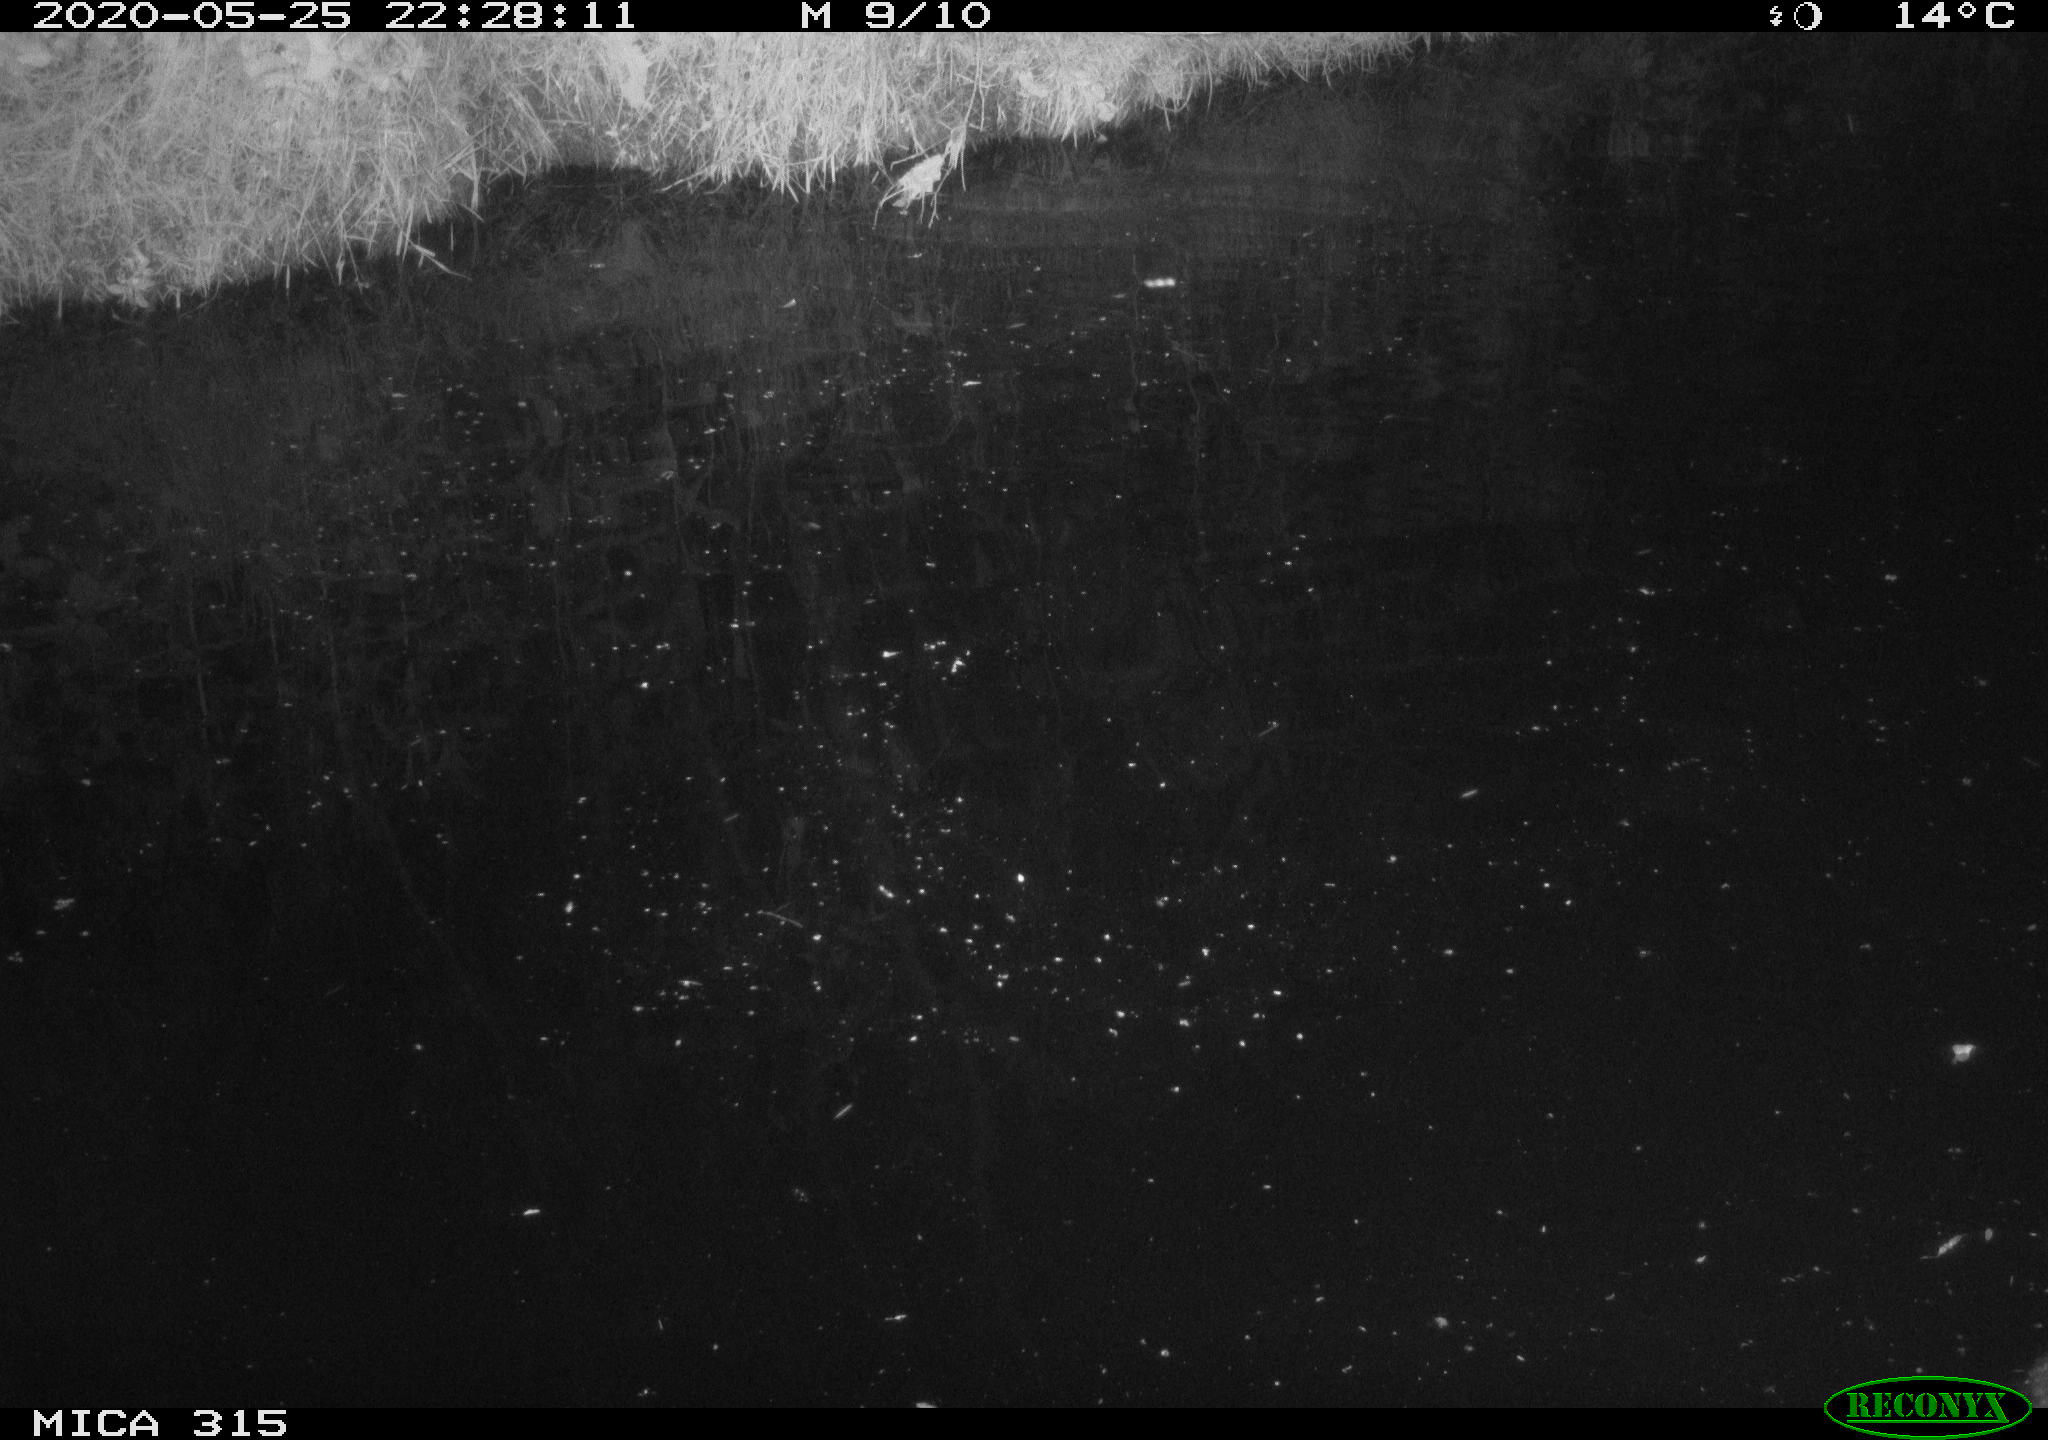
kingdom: Animalia
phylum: Chordata
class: Aves
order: Anseriformes
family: Anatidae
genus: Anas
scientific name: Anas platyrhynchos
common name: Mallard
